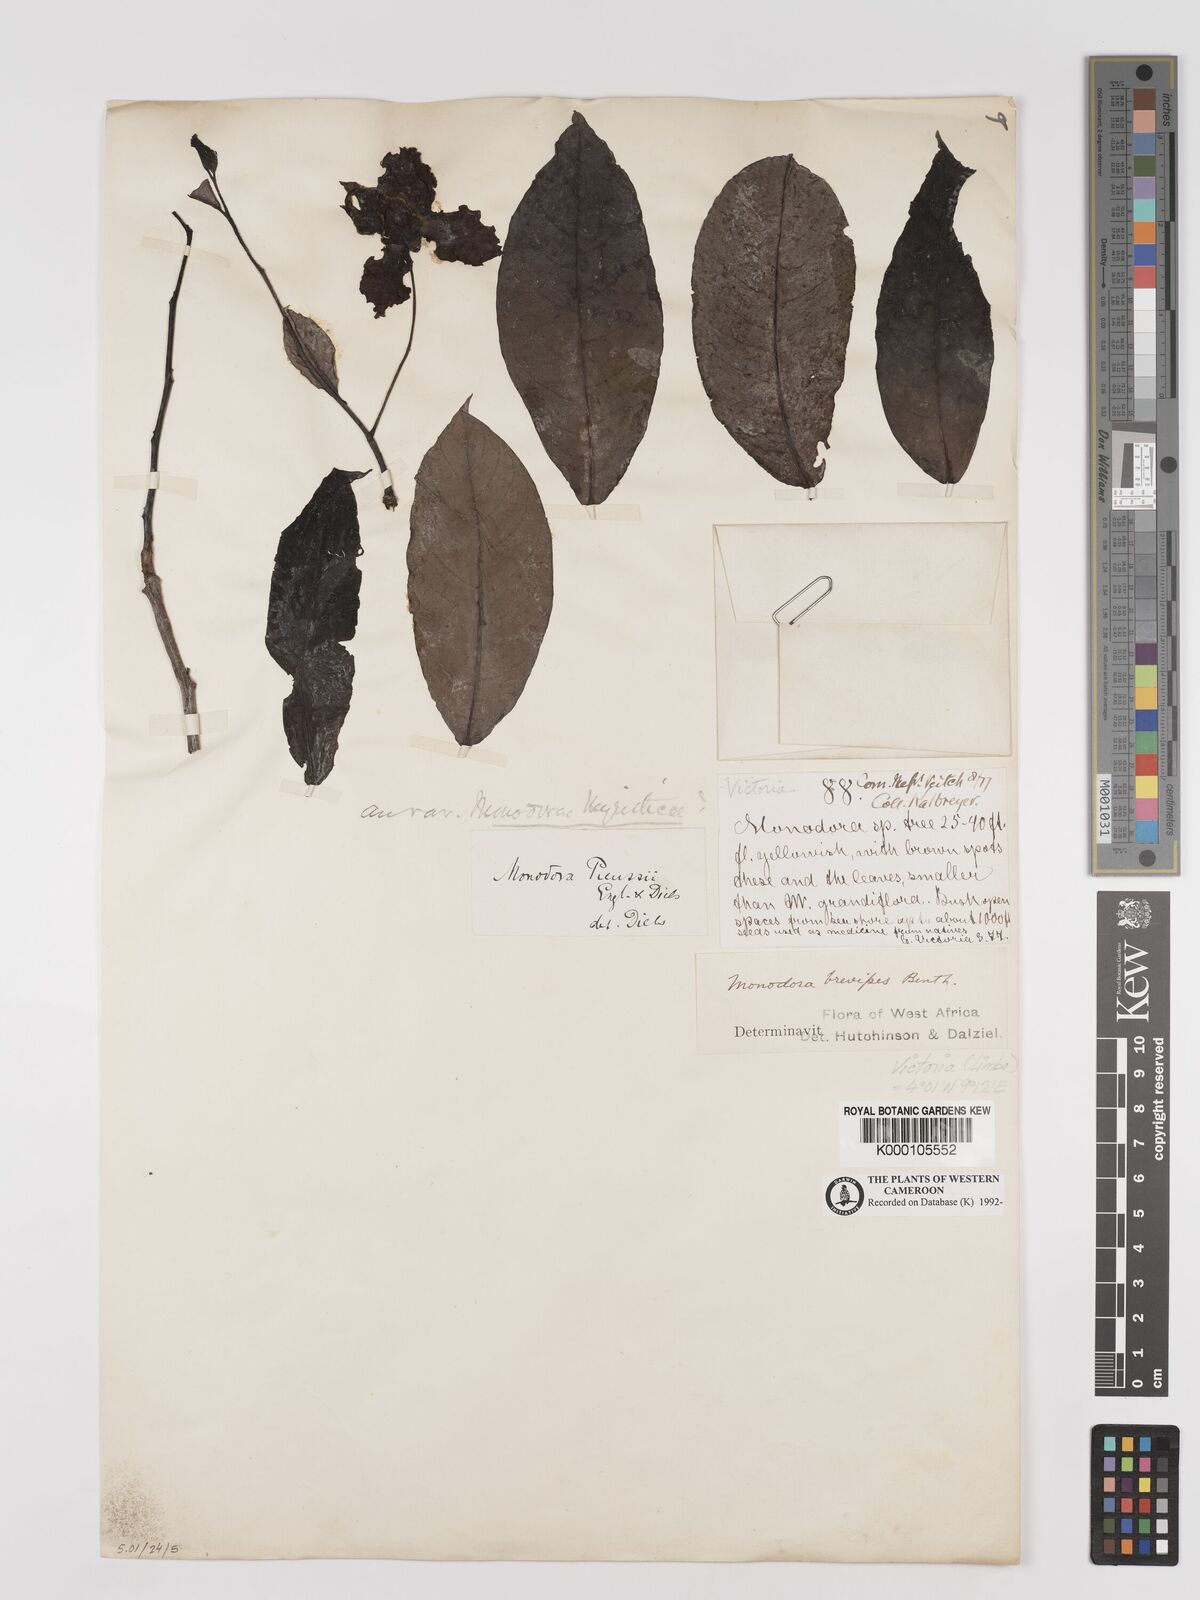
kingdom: Plantae
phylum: Tracheophyta
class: Magnoliopsida
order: Magnoliales
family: Annonaceae
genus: Monodora
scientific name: Monodora undulata
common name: Yellow-flower-nutmeg
